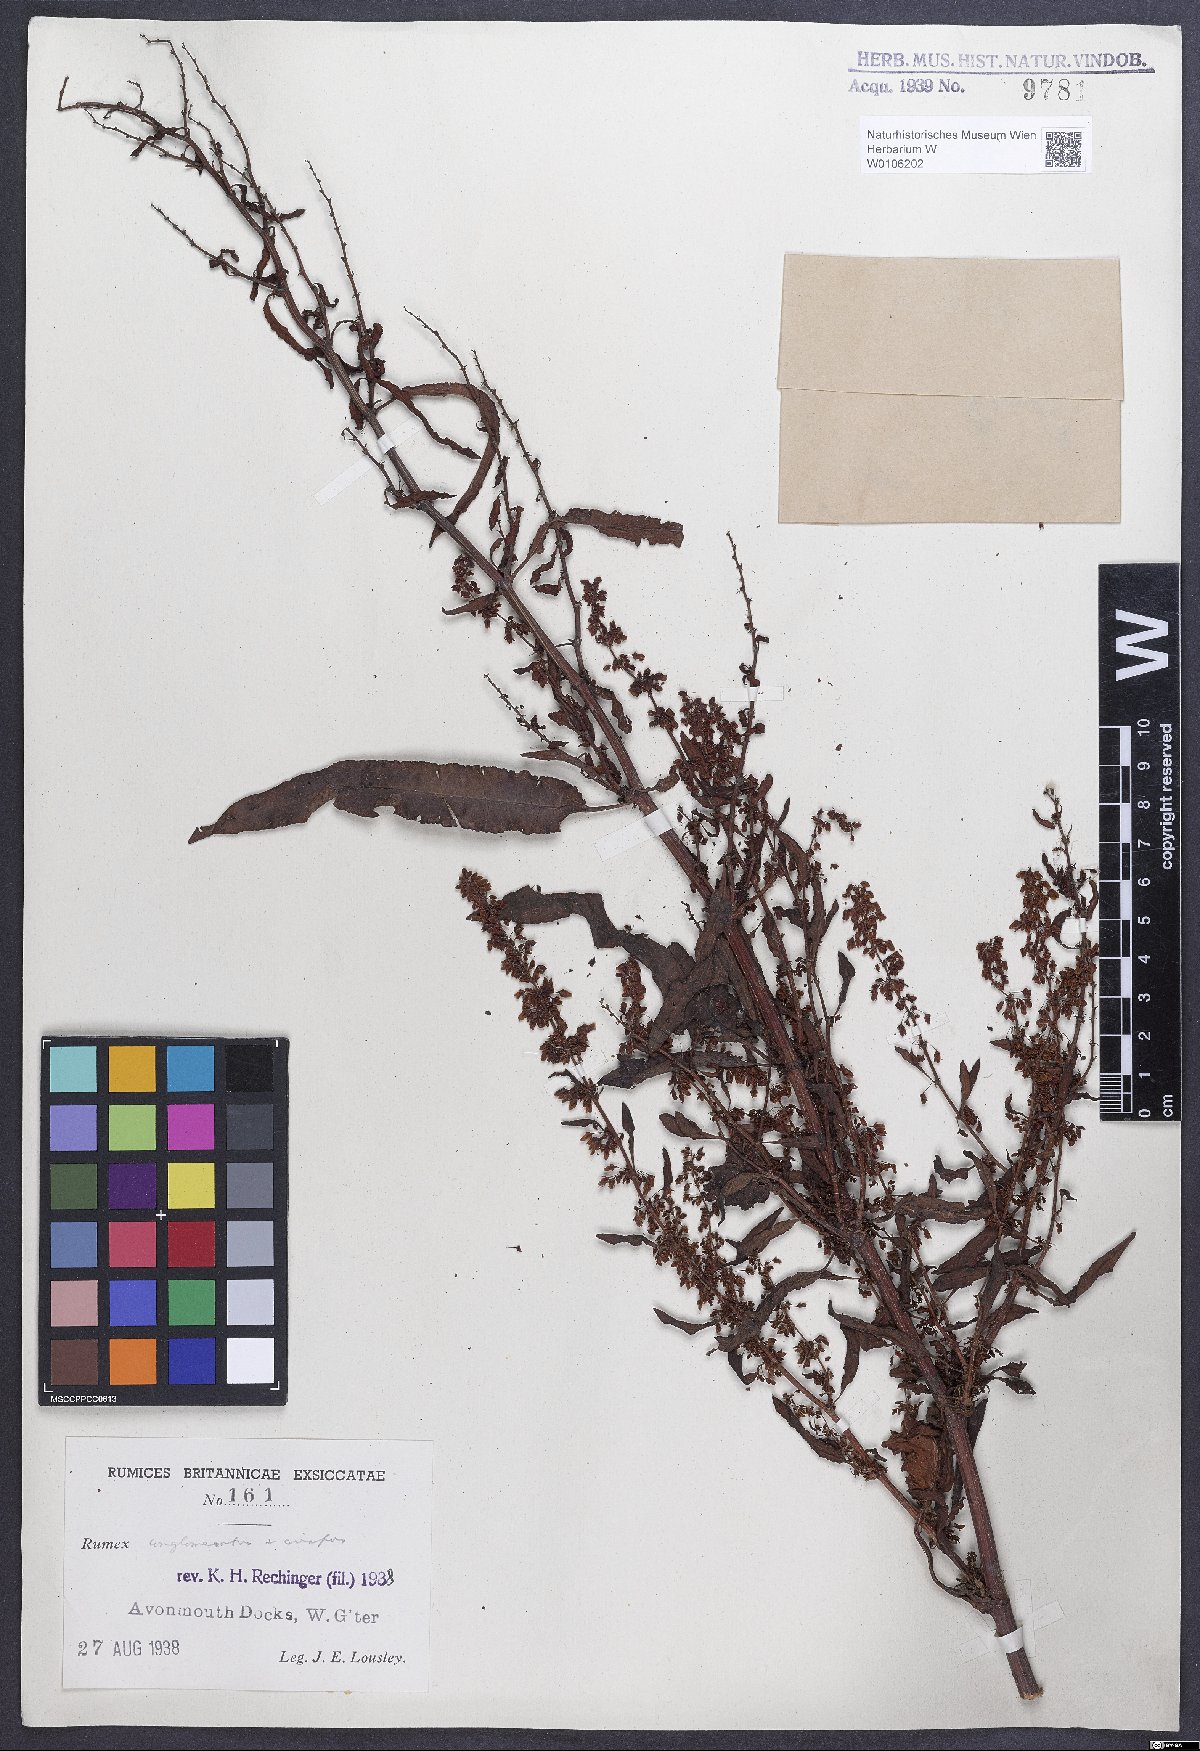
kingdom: Plantae
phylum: Tracheophyta
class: Magnoliopsida
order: Caryophyllales
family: Polygonaceae
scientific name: Polygonaceae
